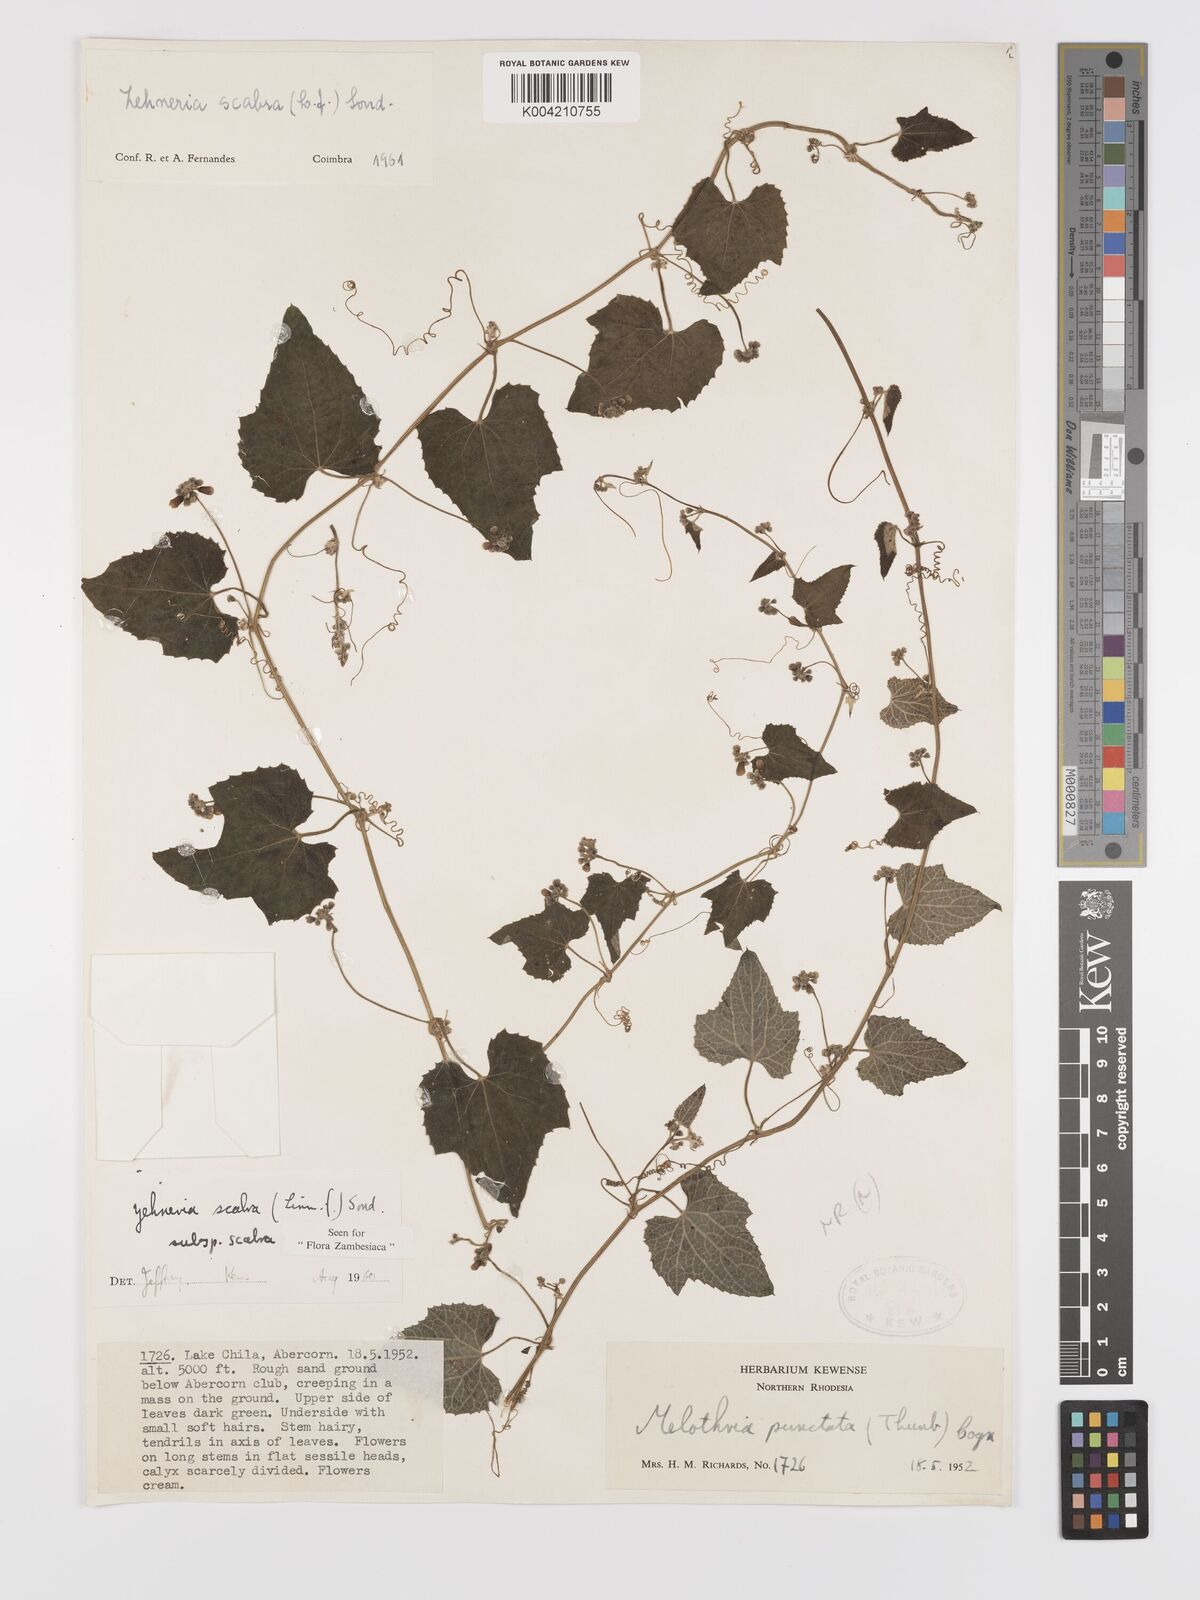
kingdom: Plantae
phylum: Tracheophyta
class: Magnoliopsida
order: Cucurbitales
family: Cucurbitaceae
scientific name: Cucurbitaceae
